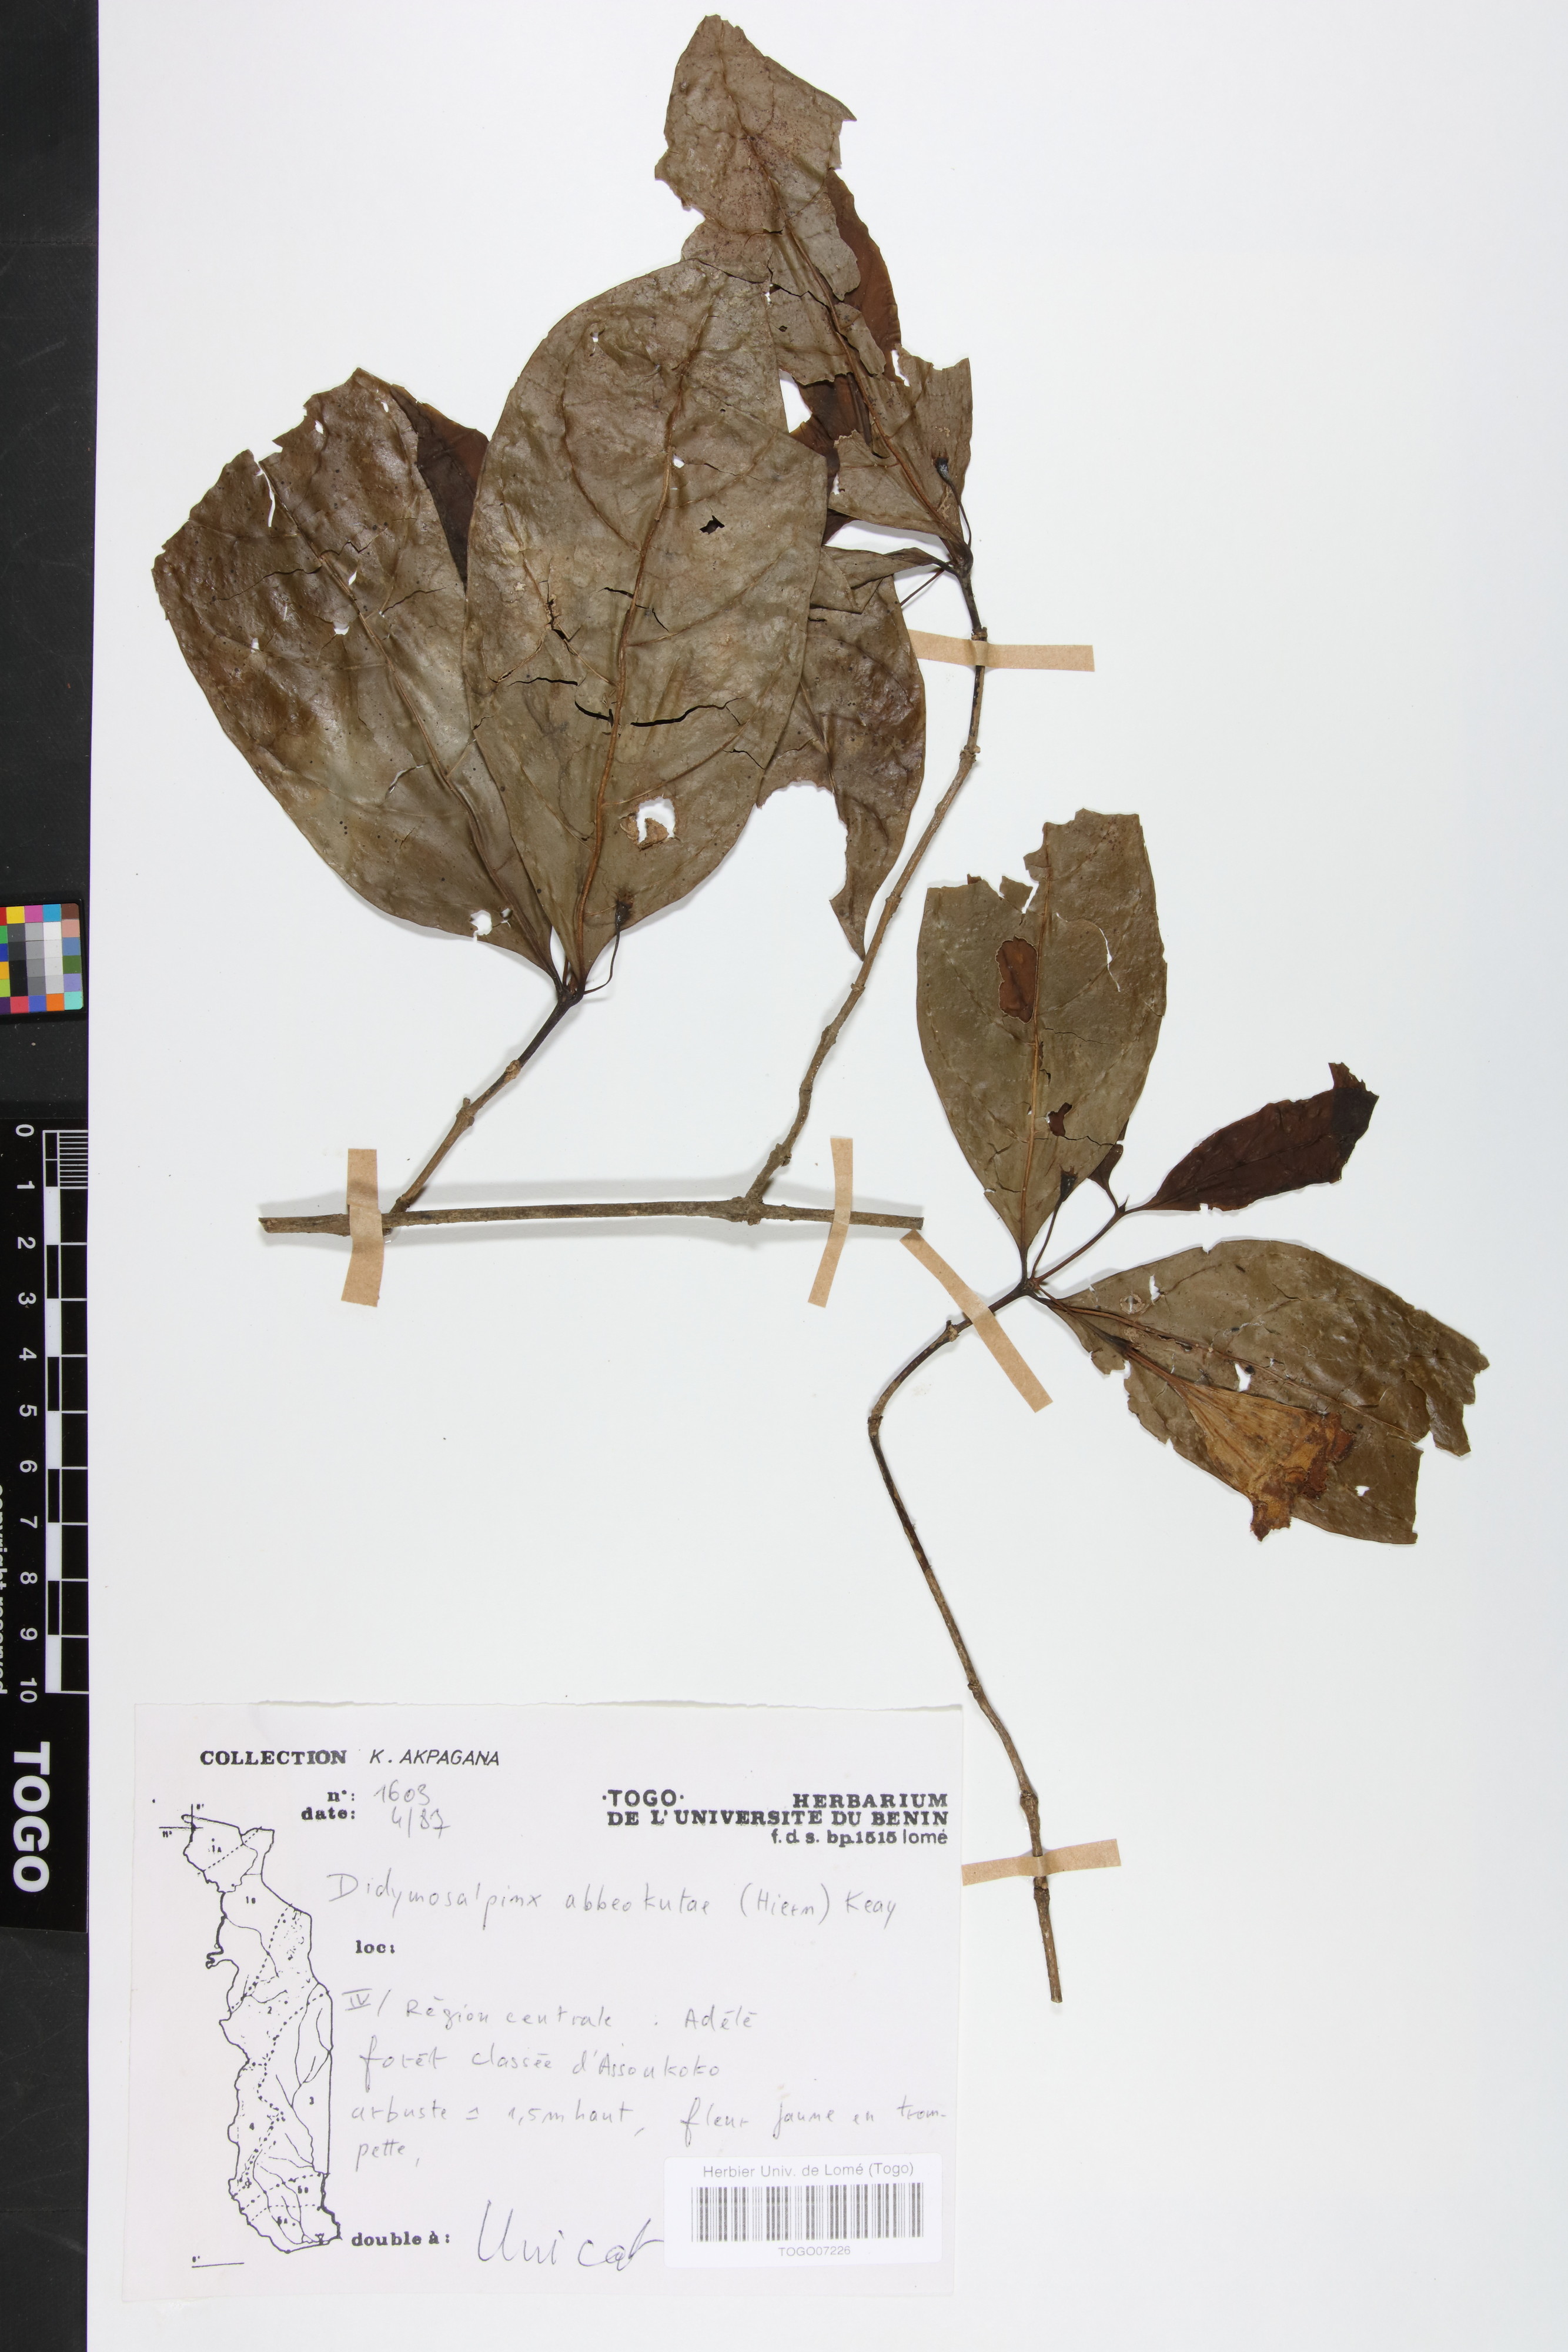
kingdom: Plantae
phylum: Tracheophyta
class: Magnoliopsida
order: Gentianales
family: Rubiaceae
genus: Didymosalpinx
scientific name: Didymosalpinx abbeokutae
